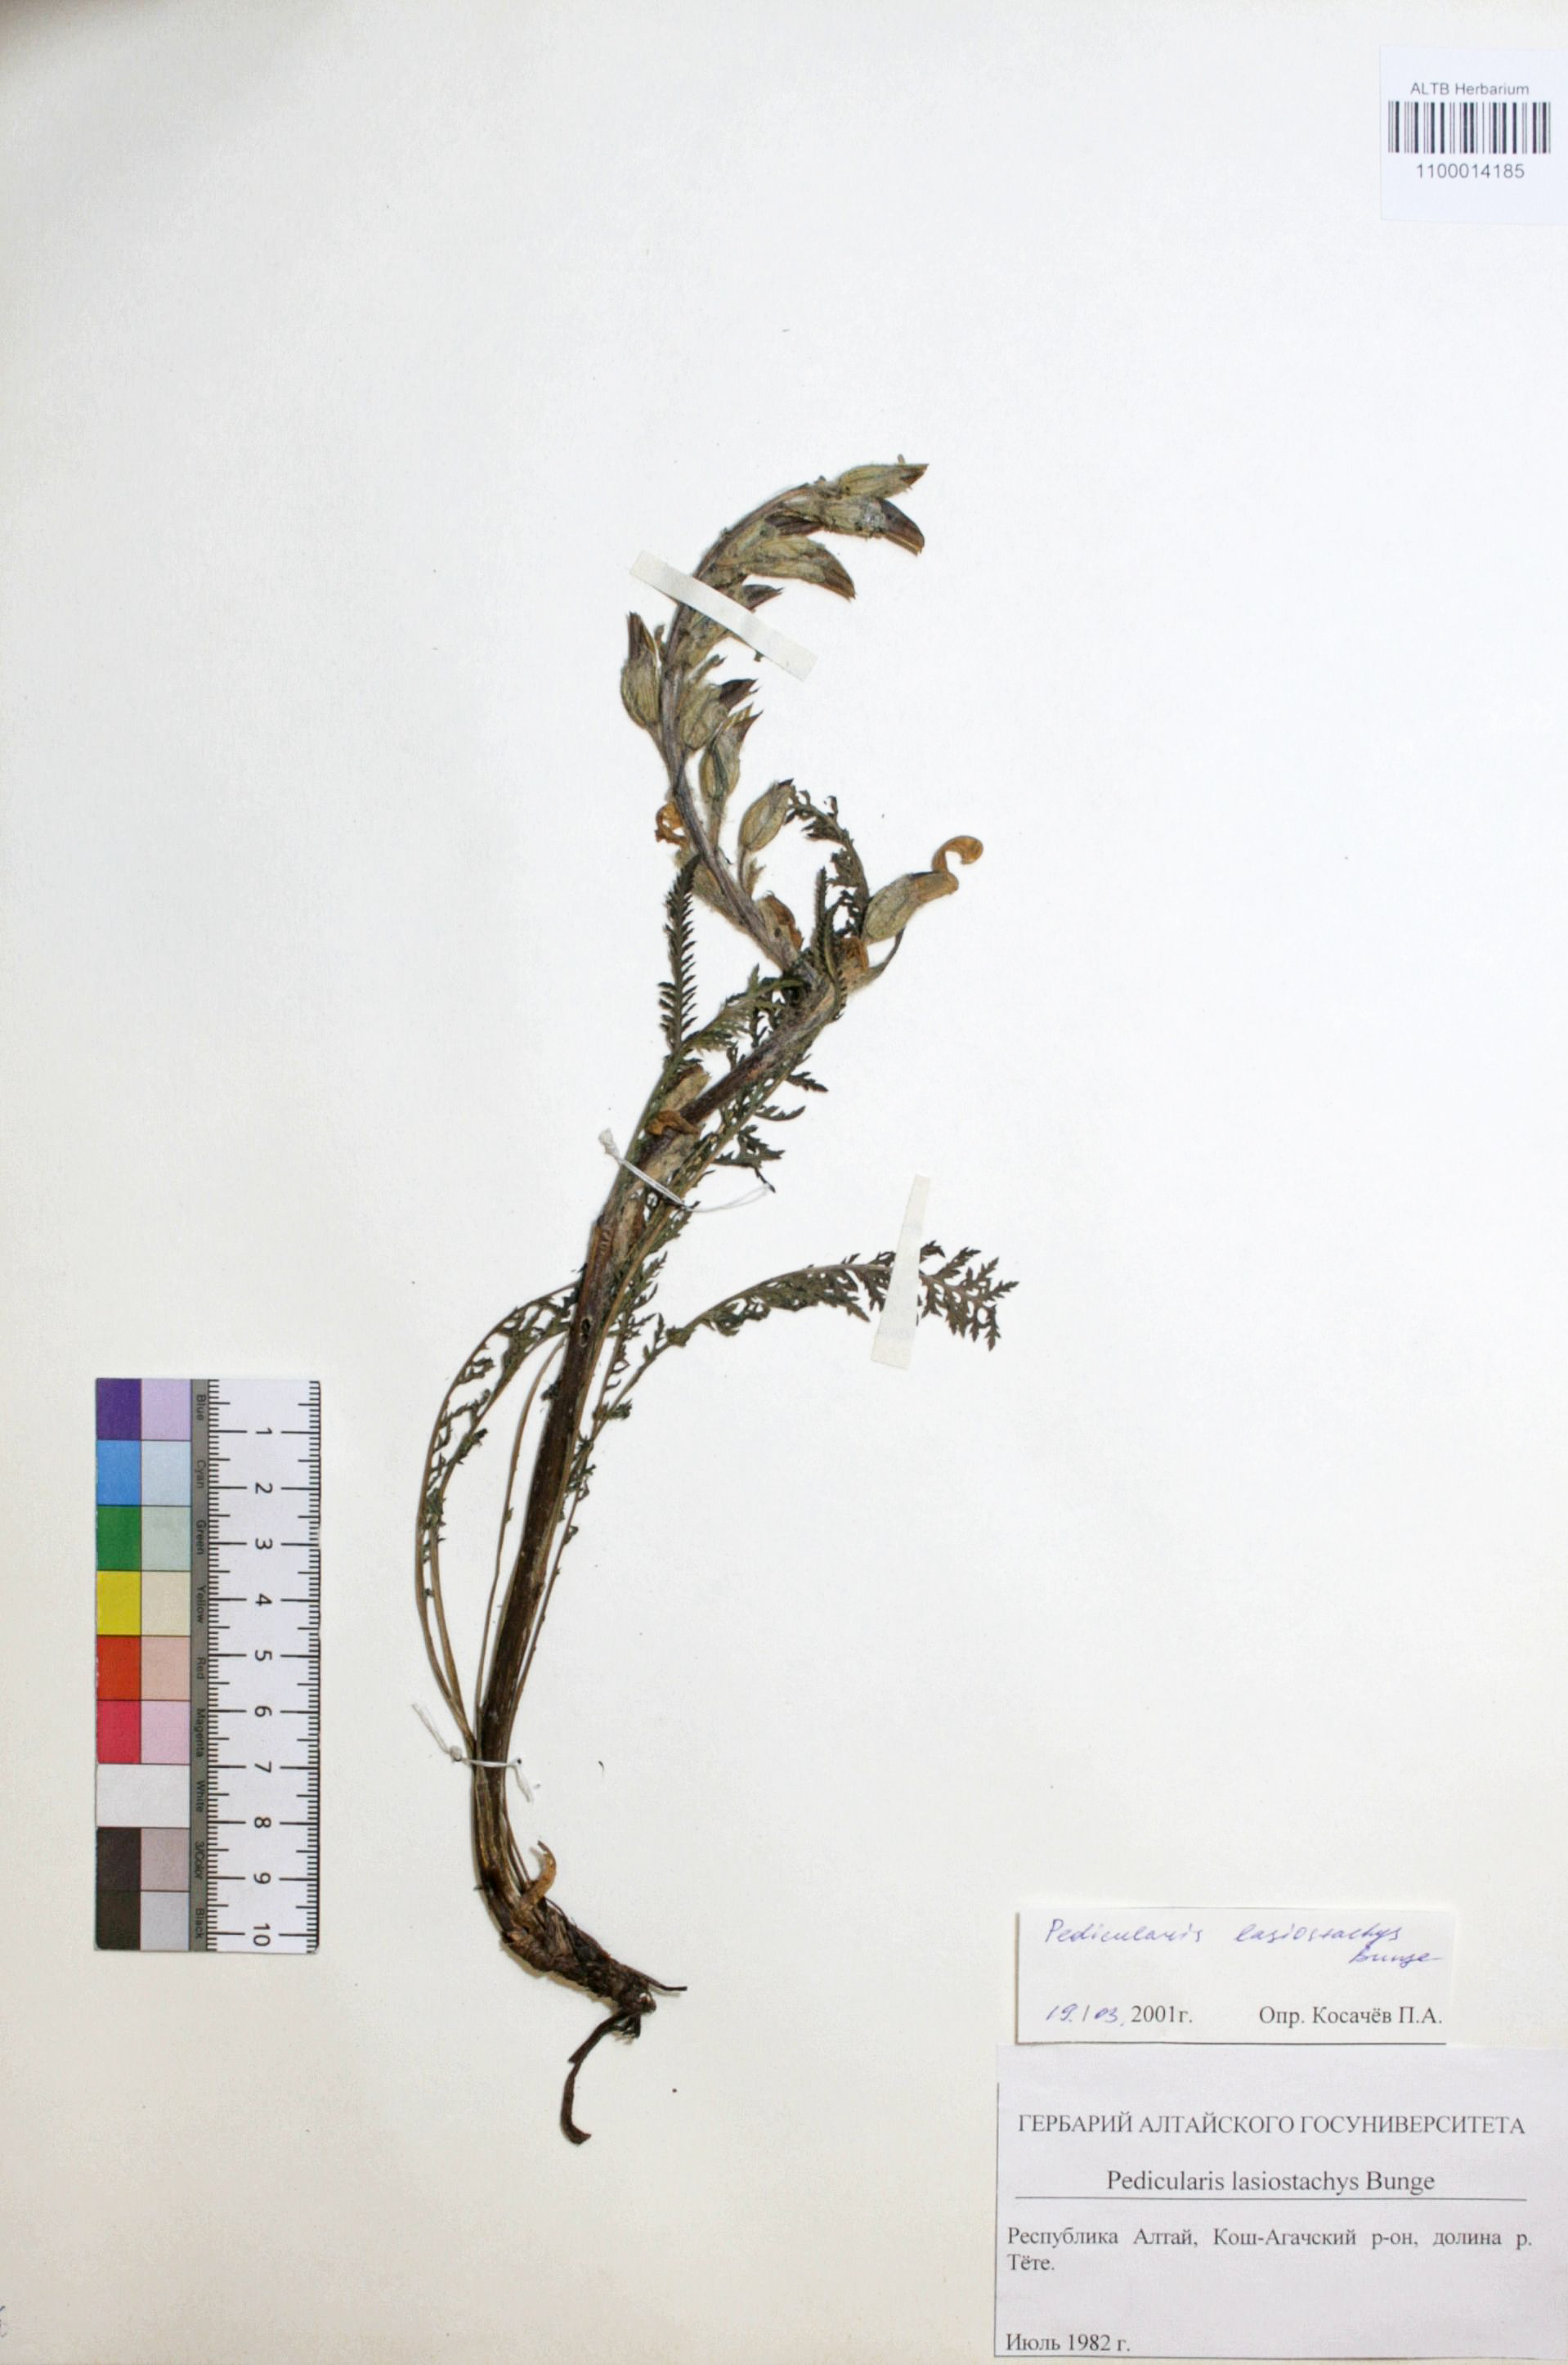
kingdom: Plantae
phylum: Tracheophyta
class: Magnoliopsida
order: Lamiales
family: Orobanchaceae
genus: Pedicularis
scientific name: Pedicularis lasiostachys
